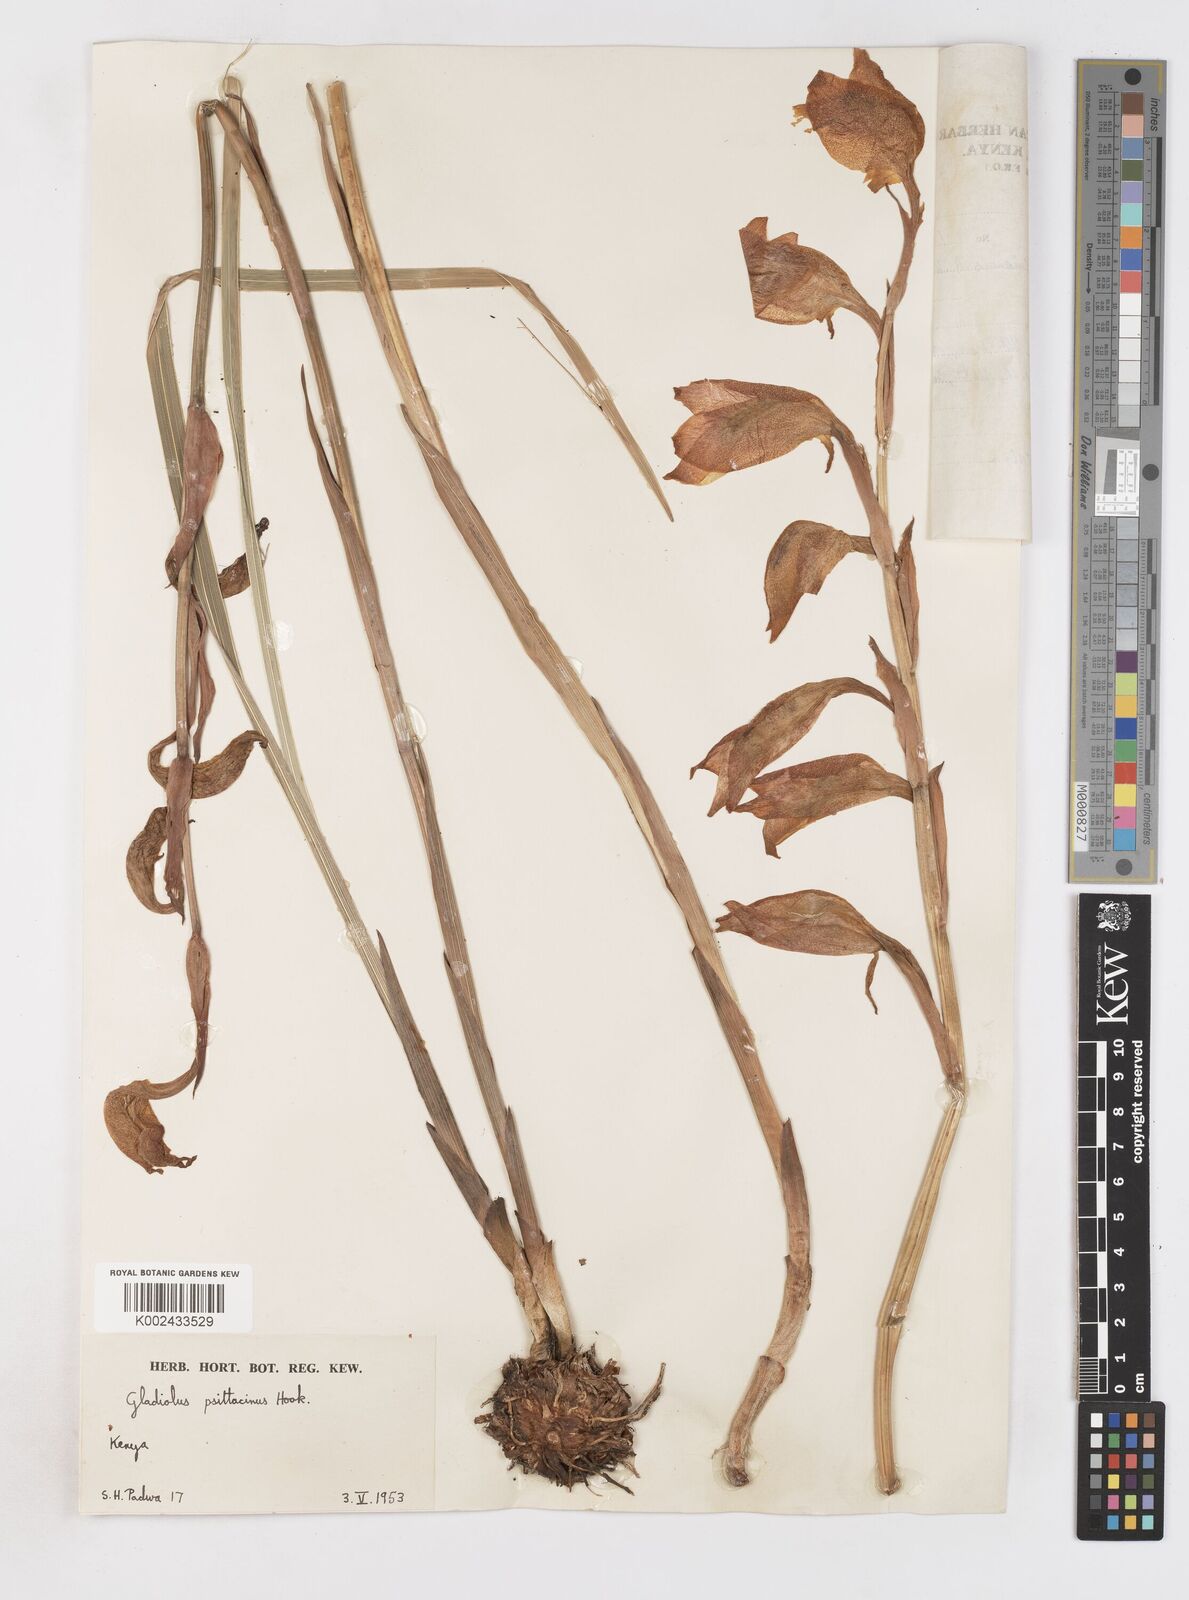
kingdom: Plantae
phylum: Tracheophyta
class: Liliopsida
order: Asparagales
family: Iridaceae
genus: Gladiolus
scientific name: Gladiolus dalenii
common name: Cornflag
